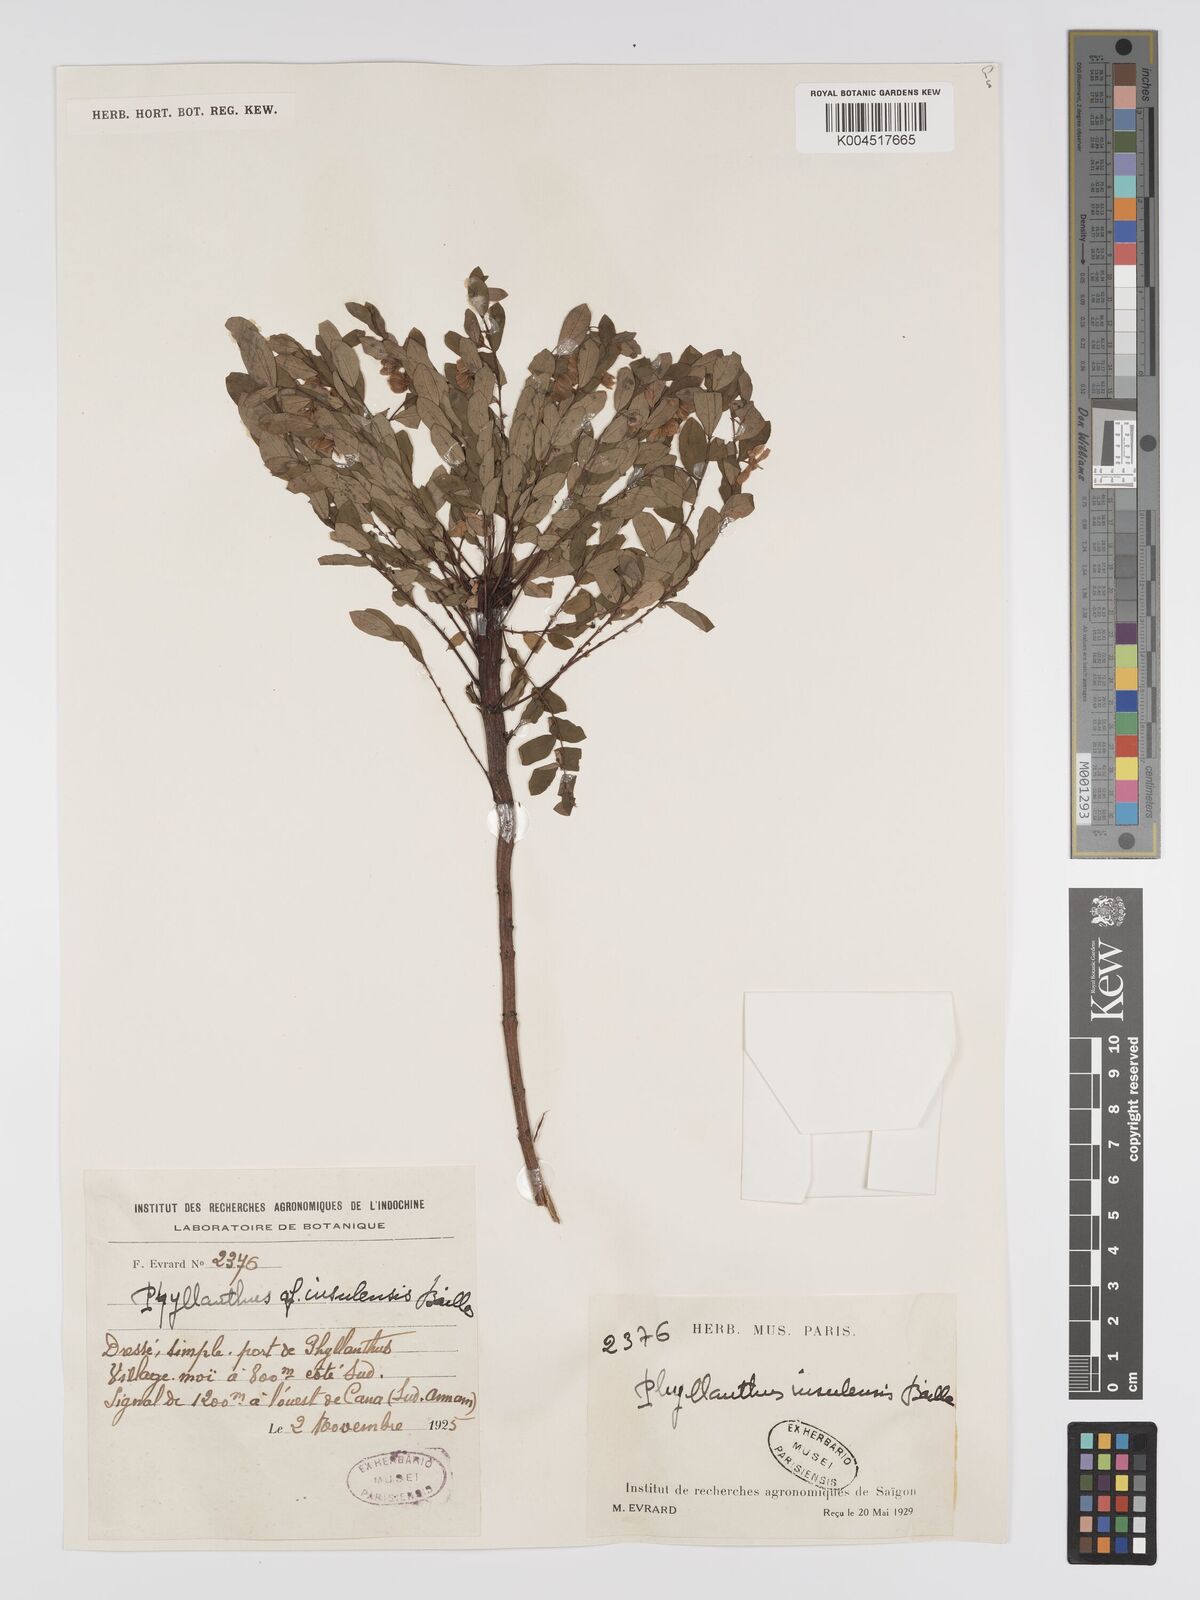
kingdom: Plantae
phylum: Tracheophyta
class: Magnoliopsida
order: Malpighiales
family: Phyllanthaceae
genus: Phyllanthus
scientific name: Phyllanthus insulensis
